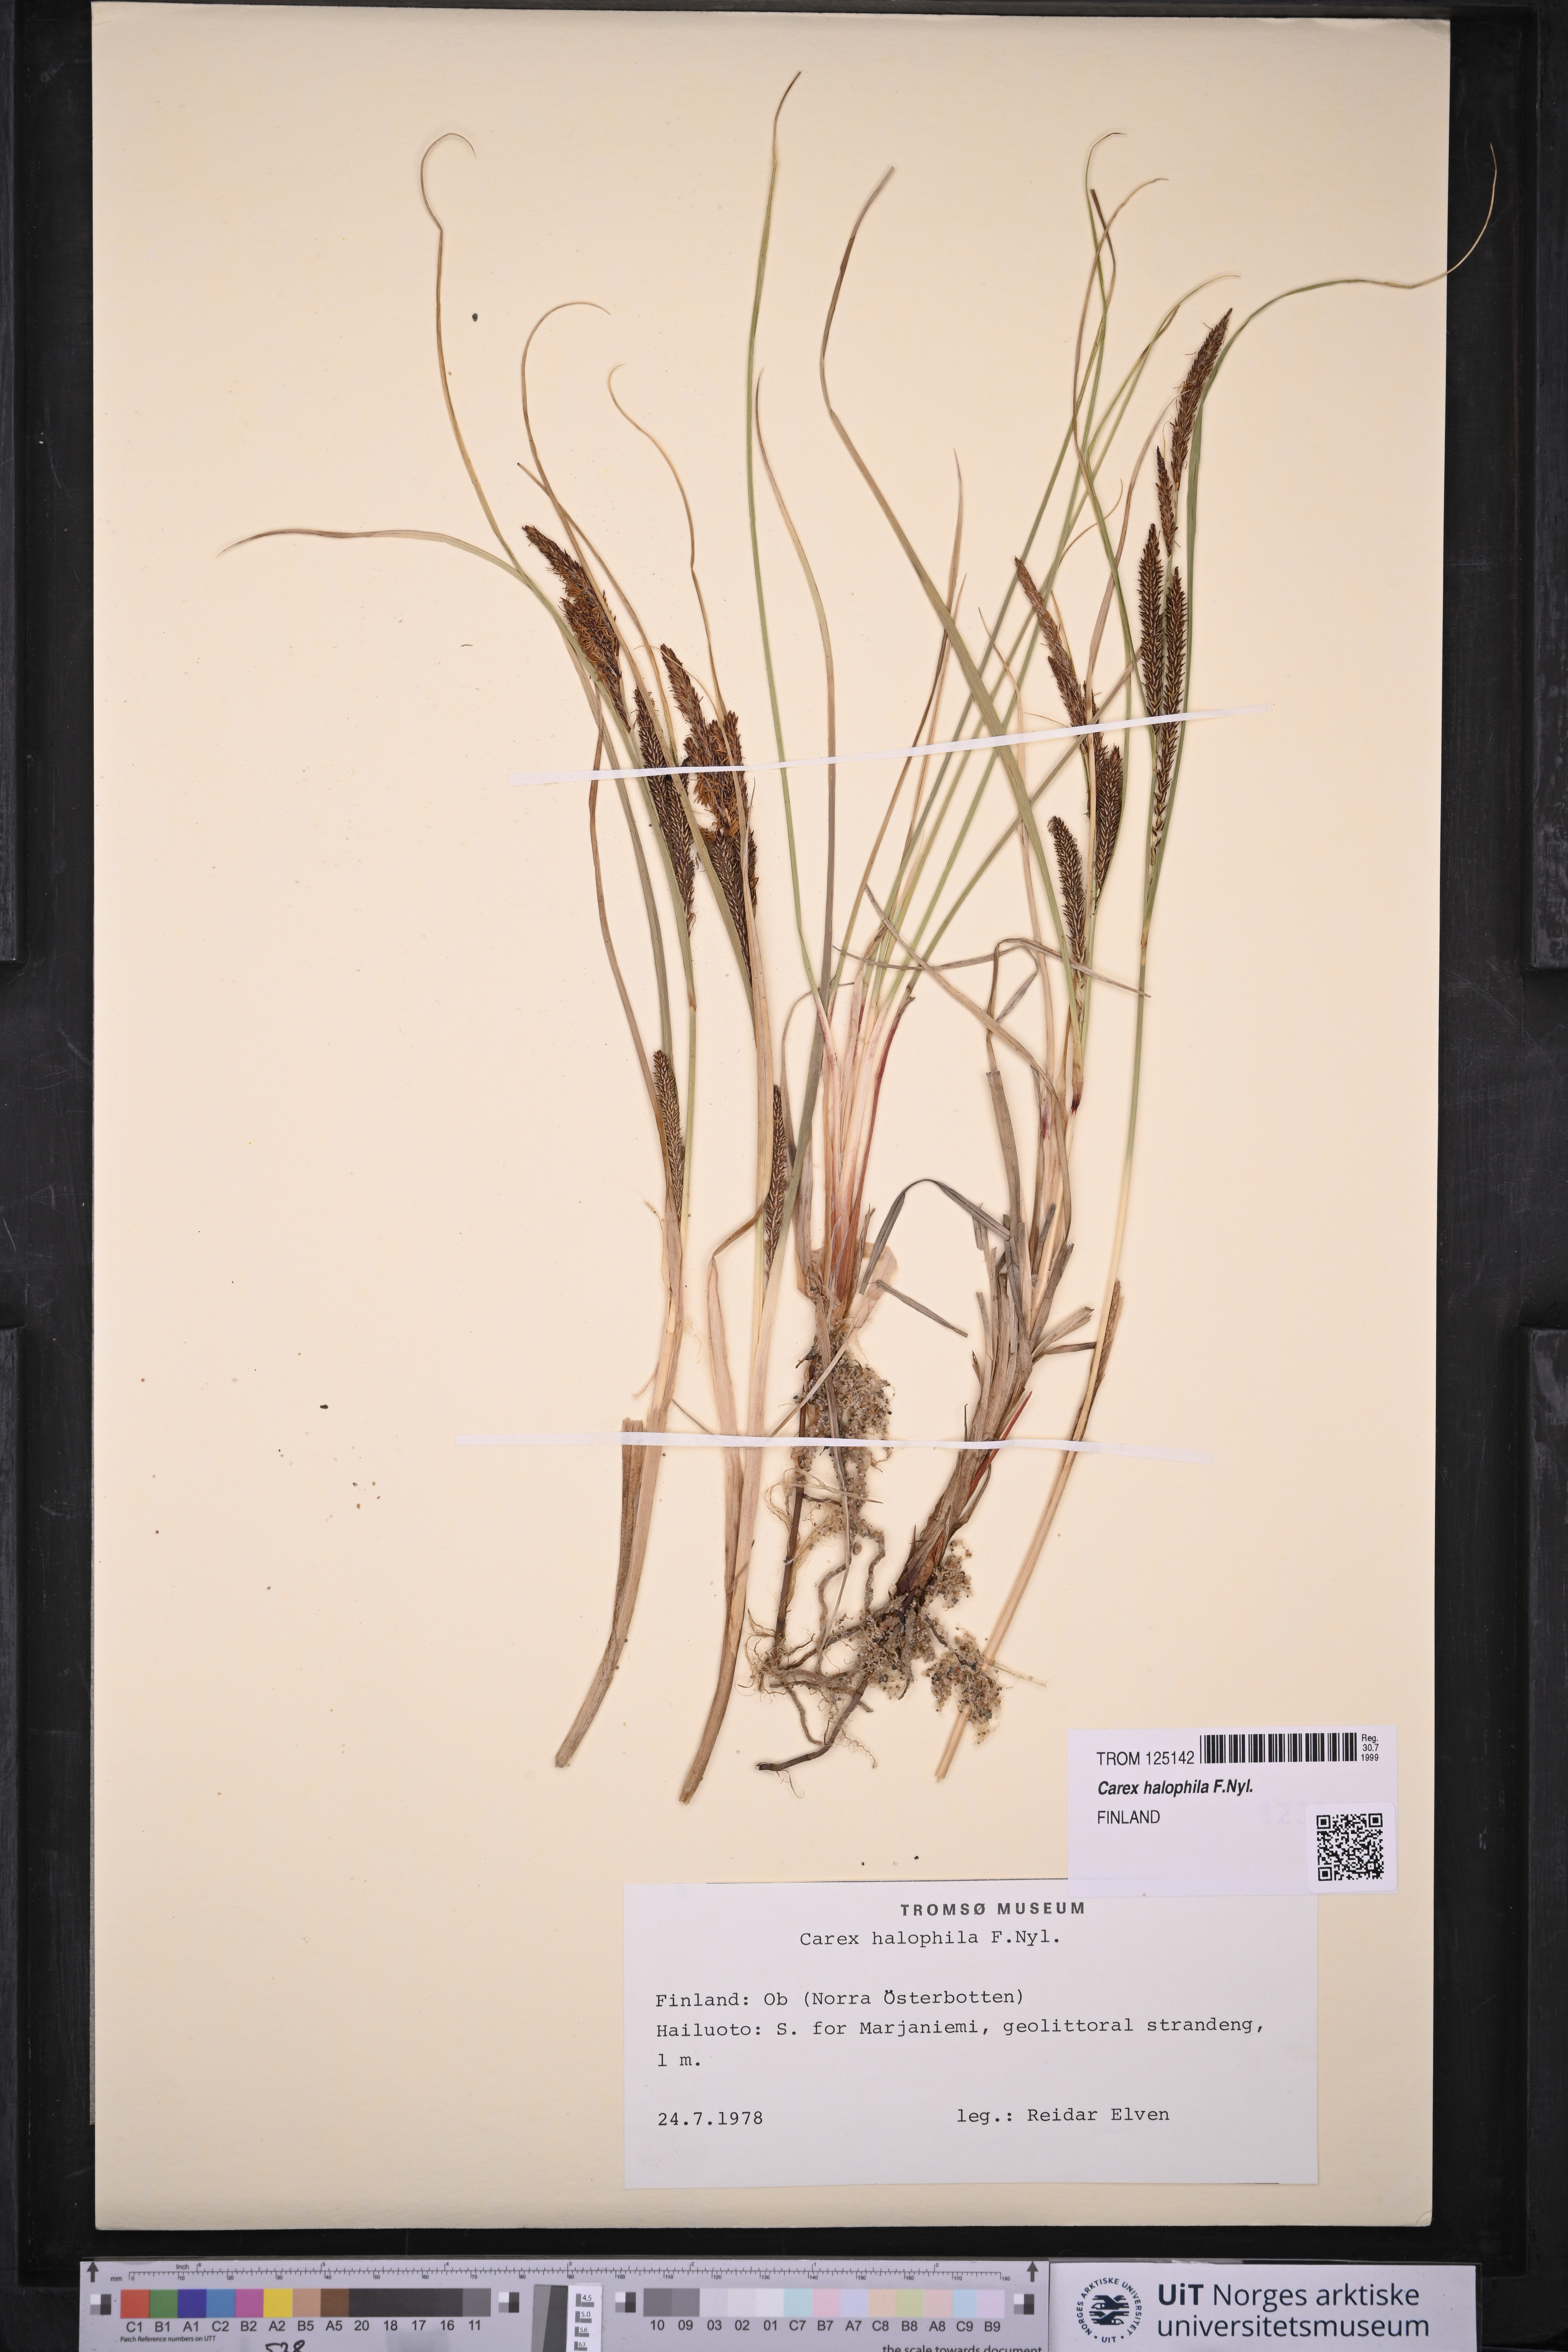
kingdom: Plantae
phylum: Tracheophyta
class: Liliopsida
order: Poales
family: Cyperaceae
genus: Carex
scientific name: Carex halophila
